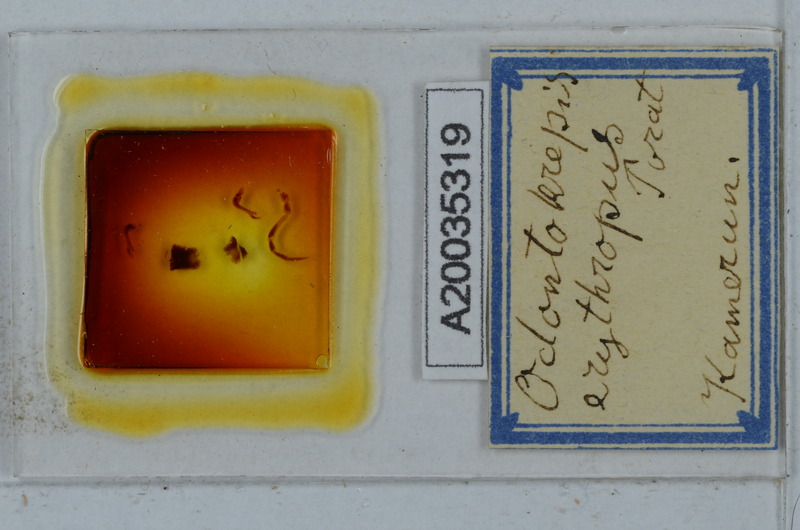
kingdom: Animalia
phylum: Arthropoda
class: Diplopoda
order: Polydesmida
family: Chelodesmidae
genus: Anisodesmus
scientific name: Anisodesmus erythropus
